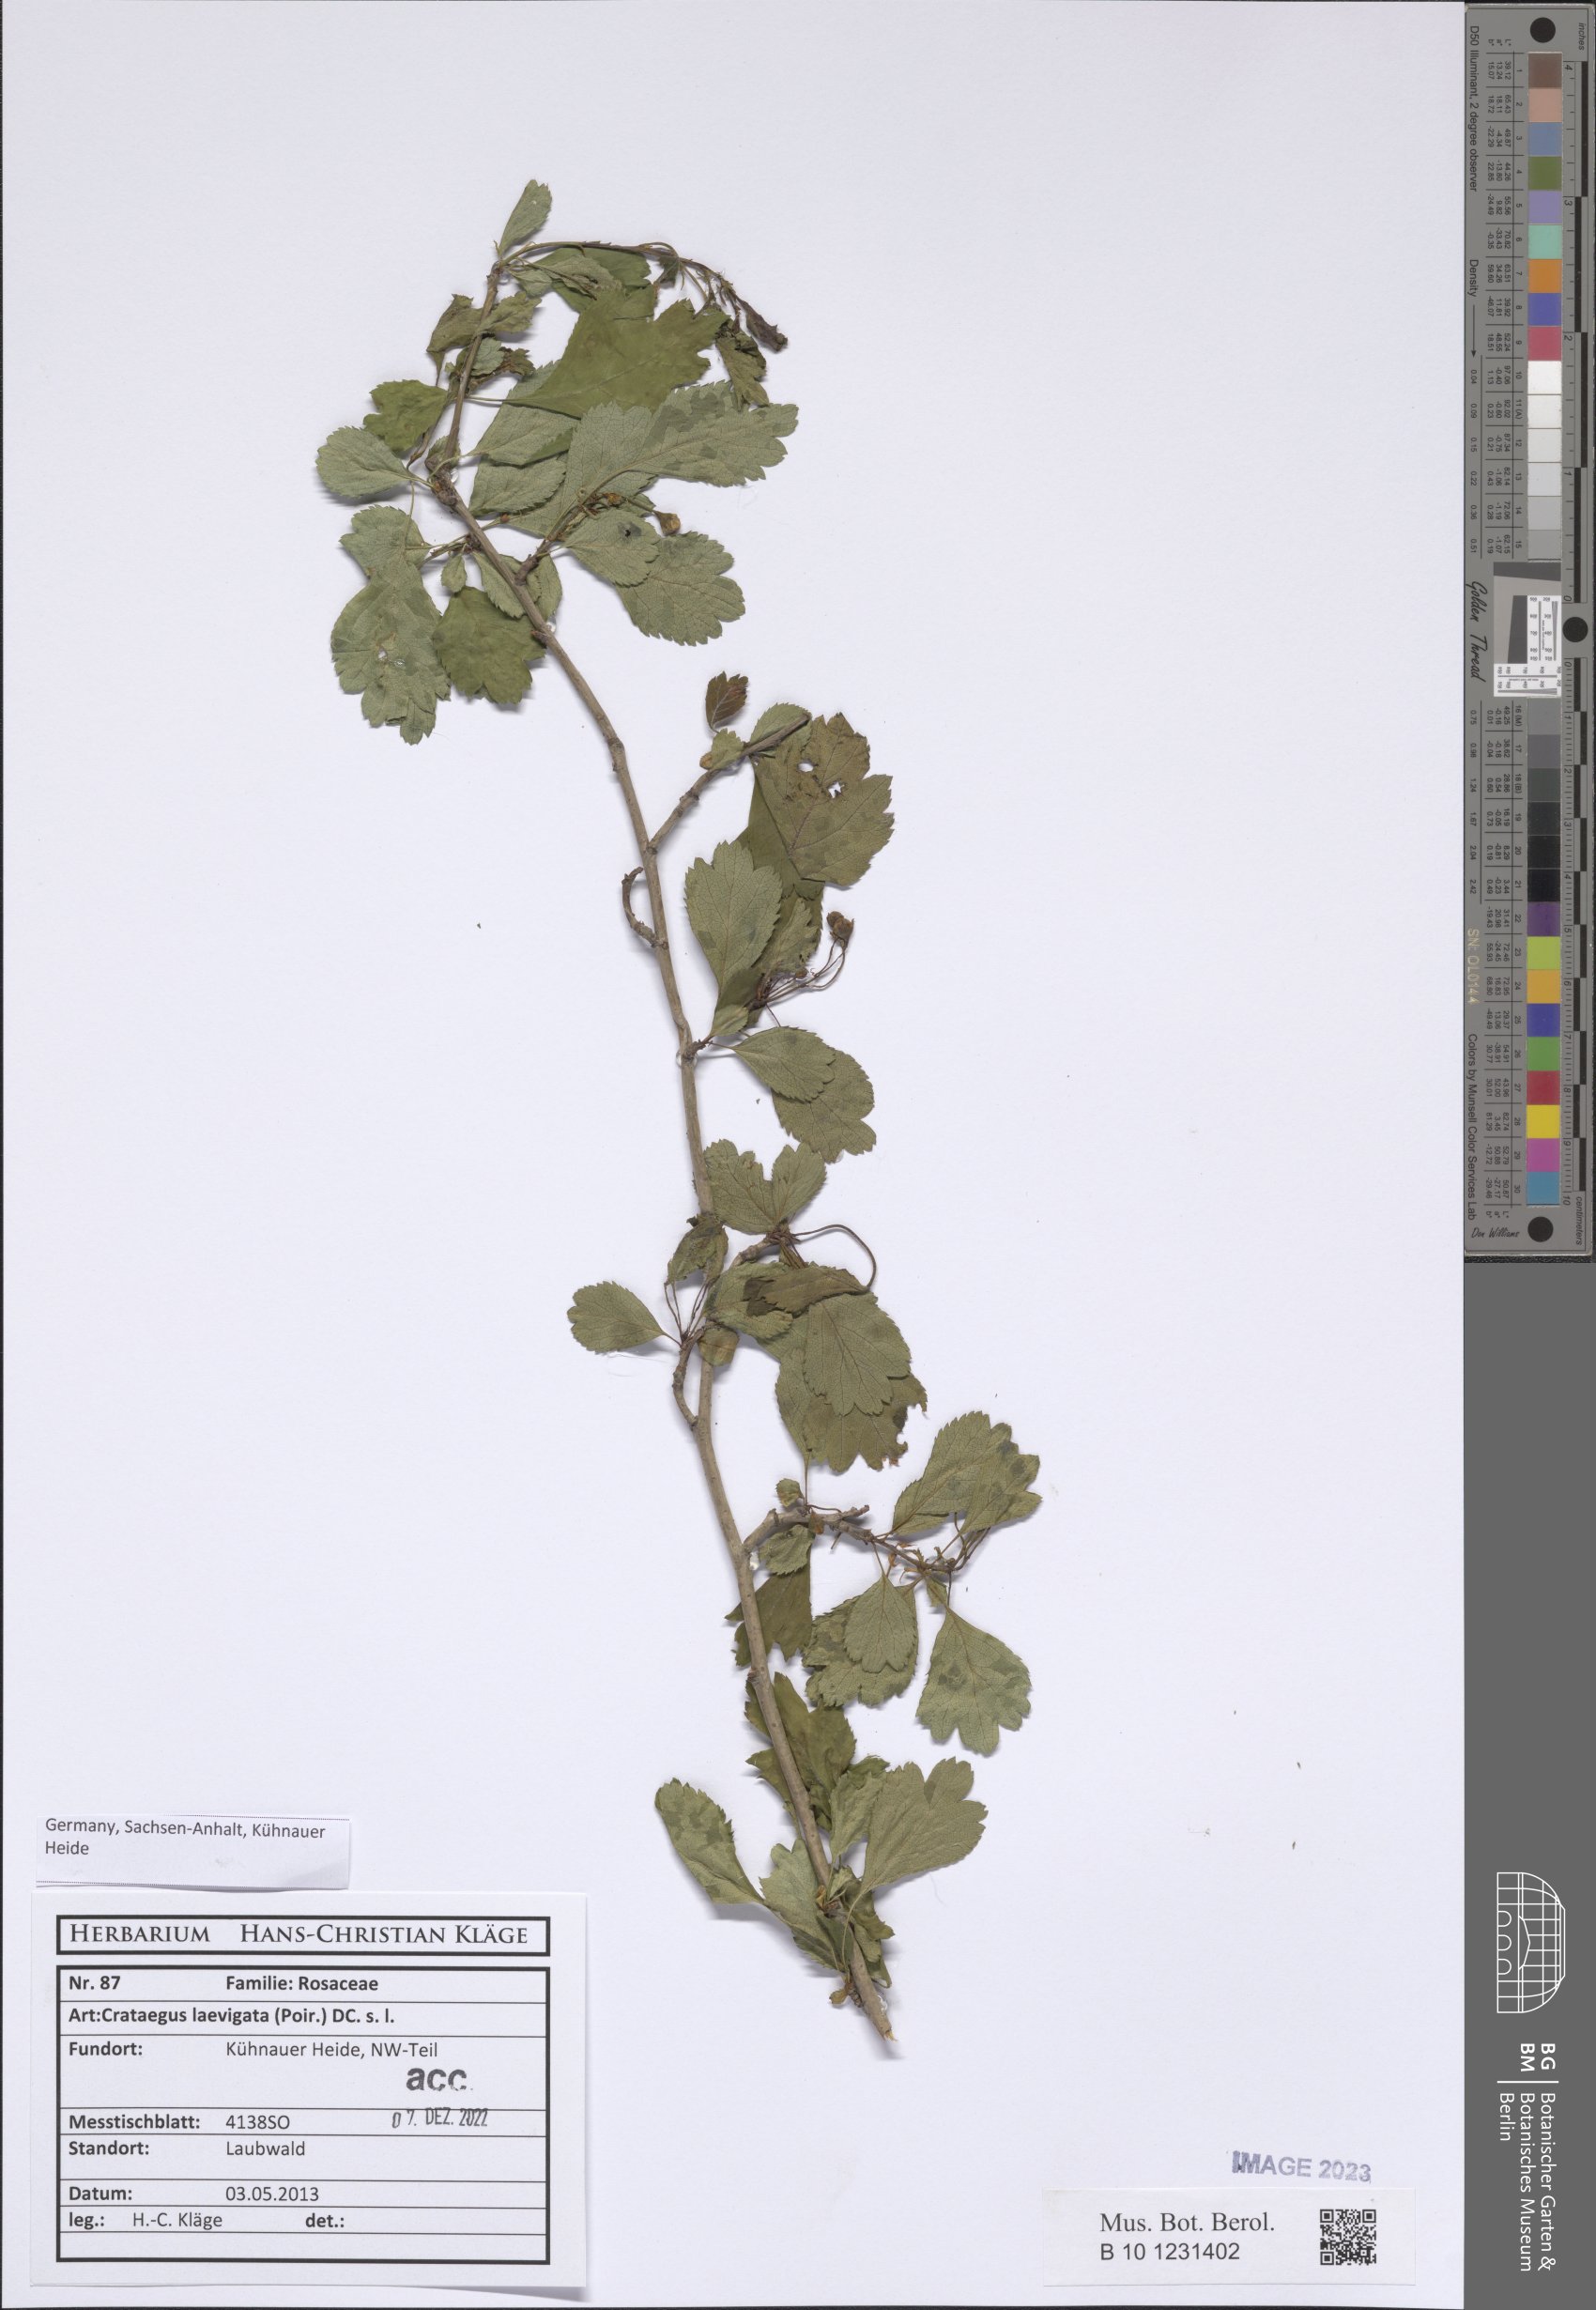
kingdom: Plantae
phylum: Tracheophyta
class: Magnoliopsida
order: Rosales
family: Rosaceae
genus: Crataegus
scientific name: Crataegus laevigata
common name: Midland hawthorn
